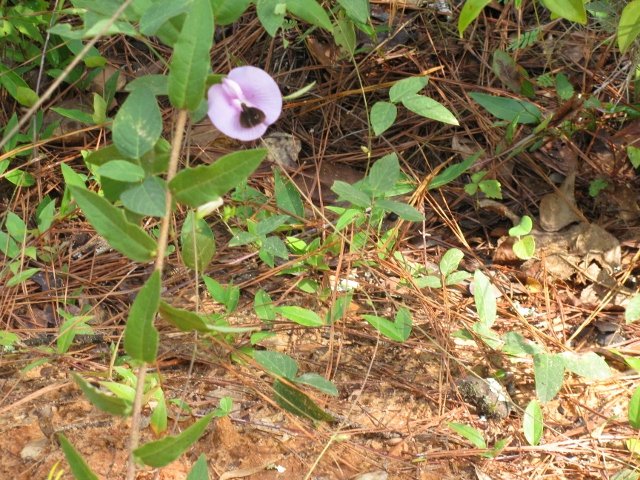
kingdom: Animalia
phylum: Arthropoda
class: Insecta
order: Lepidoptera
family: Hesperiidae
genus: Mastor
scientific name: Mastor celia
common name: Bell's Roadside-Skipper
